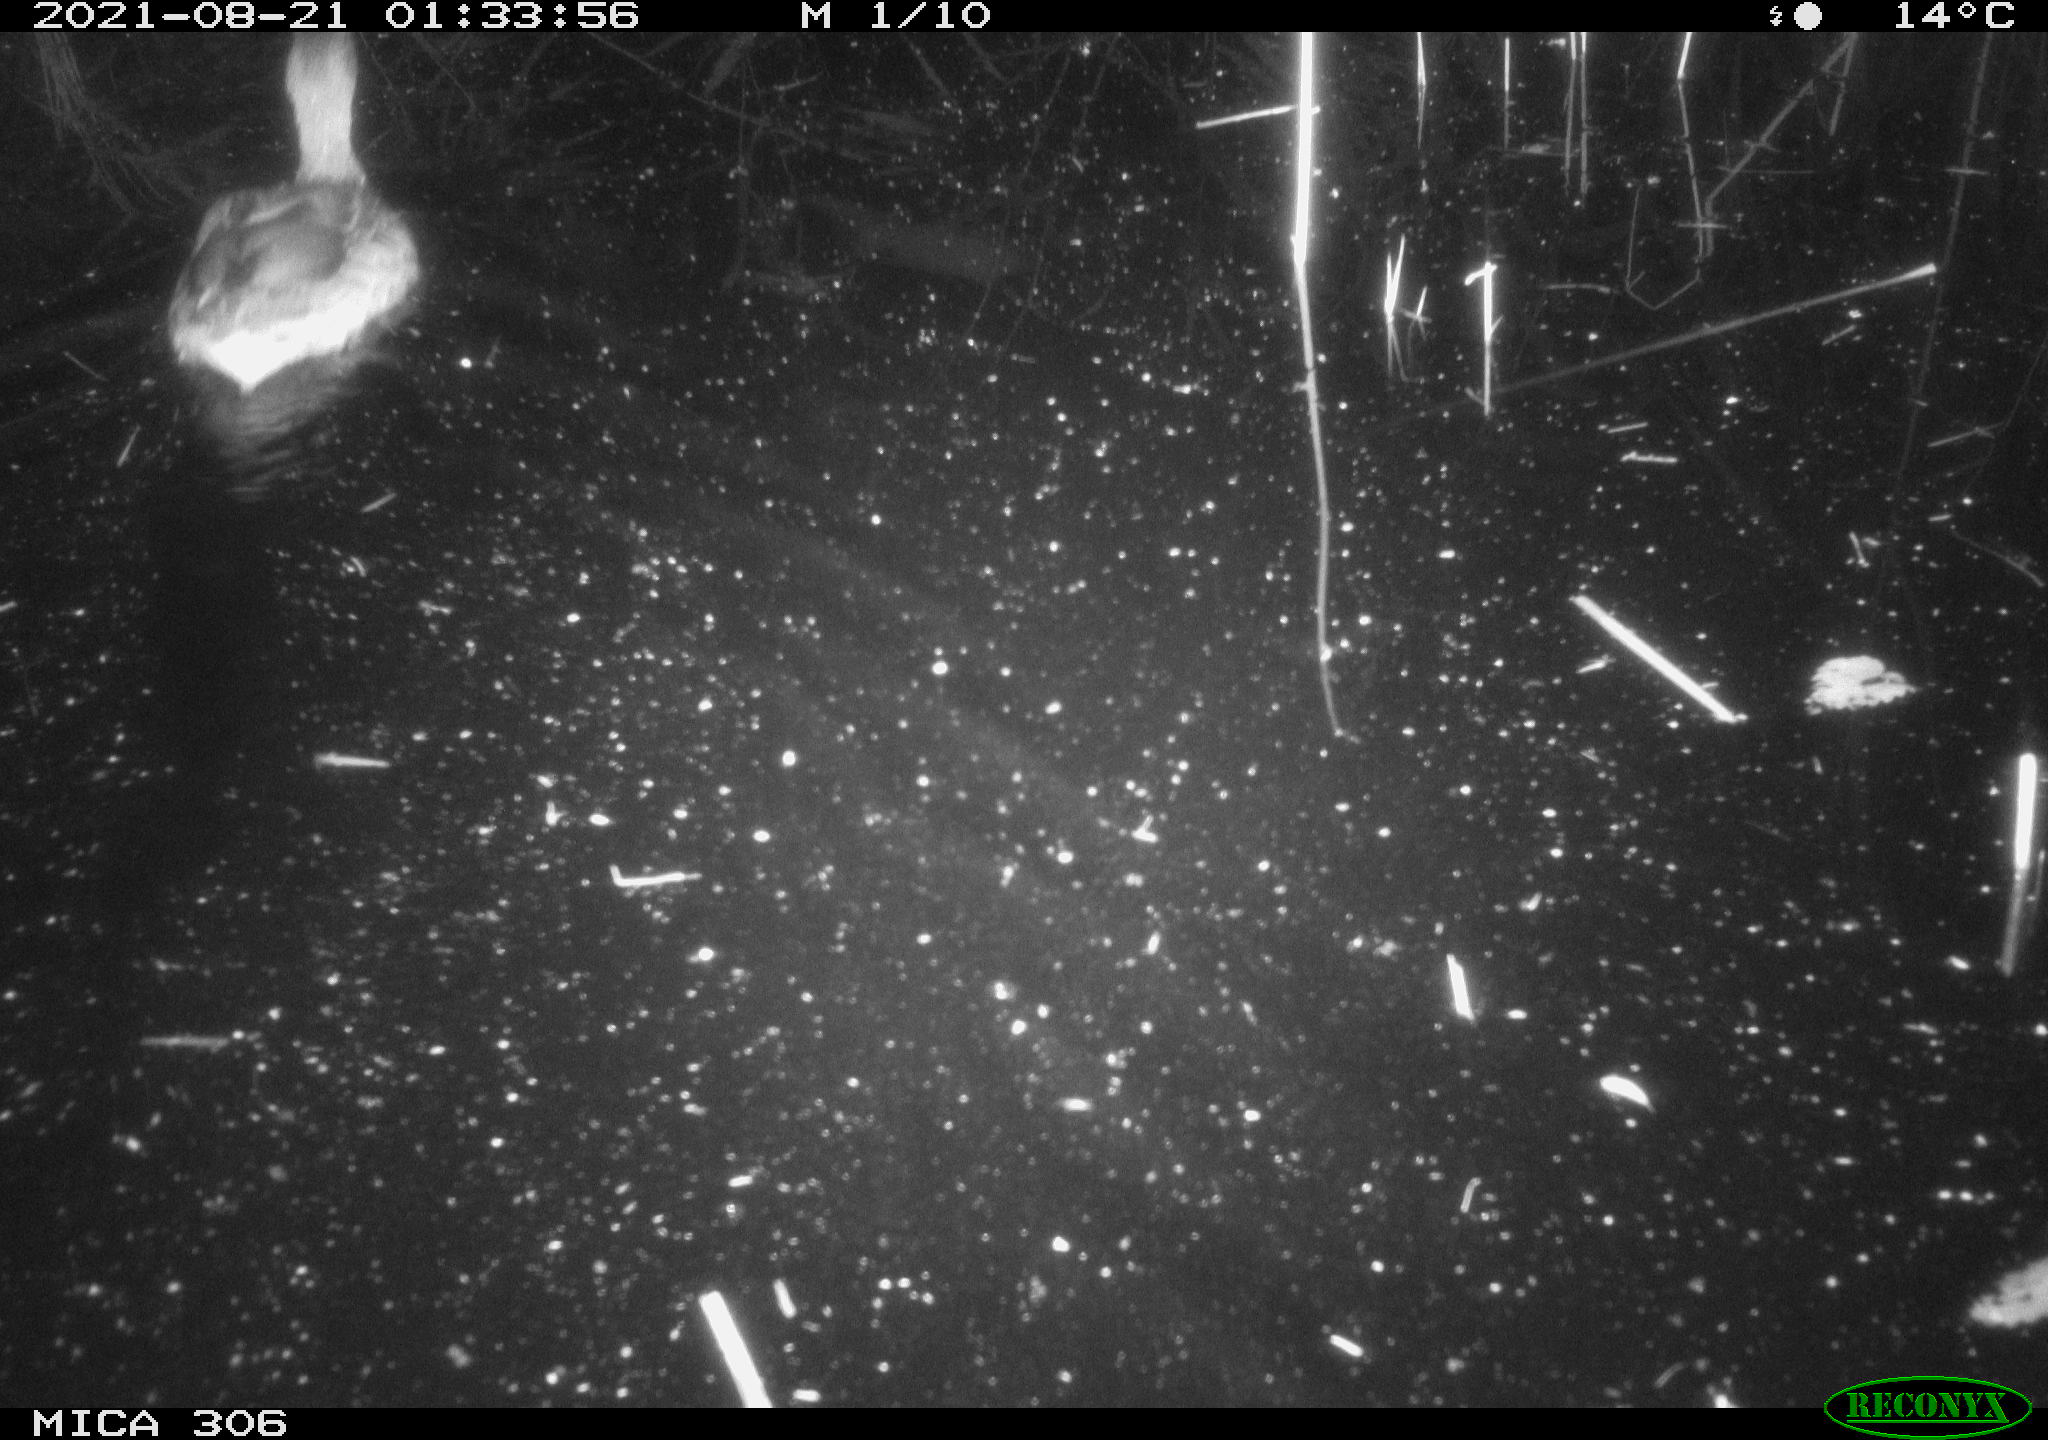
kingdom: Animalia
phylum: Chordata
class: Aves
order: Anseriformes
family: Anatidae
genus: Anas
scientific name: Anas platyrhynchos
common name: Mallard
